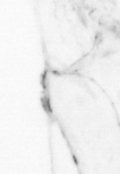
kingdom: Animalia
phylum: Chaetognatha
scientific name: Chaetognatha
